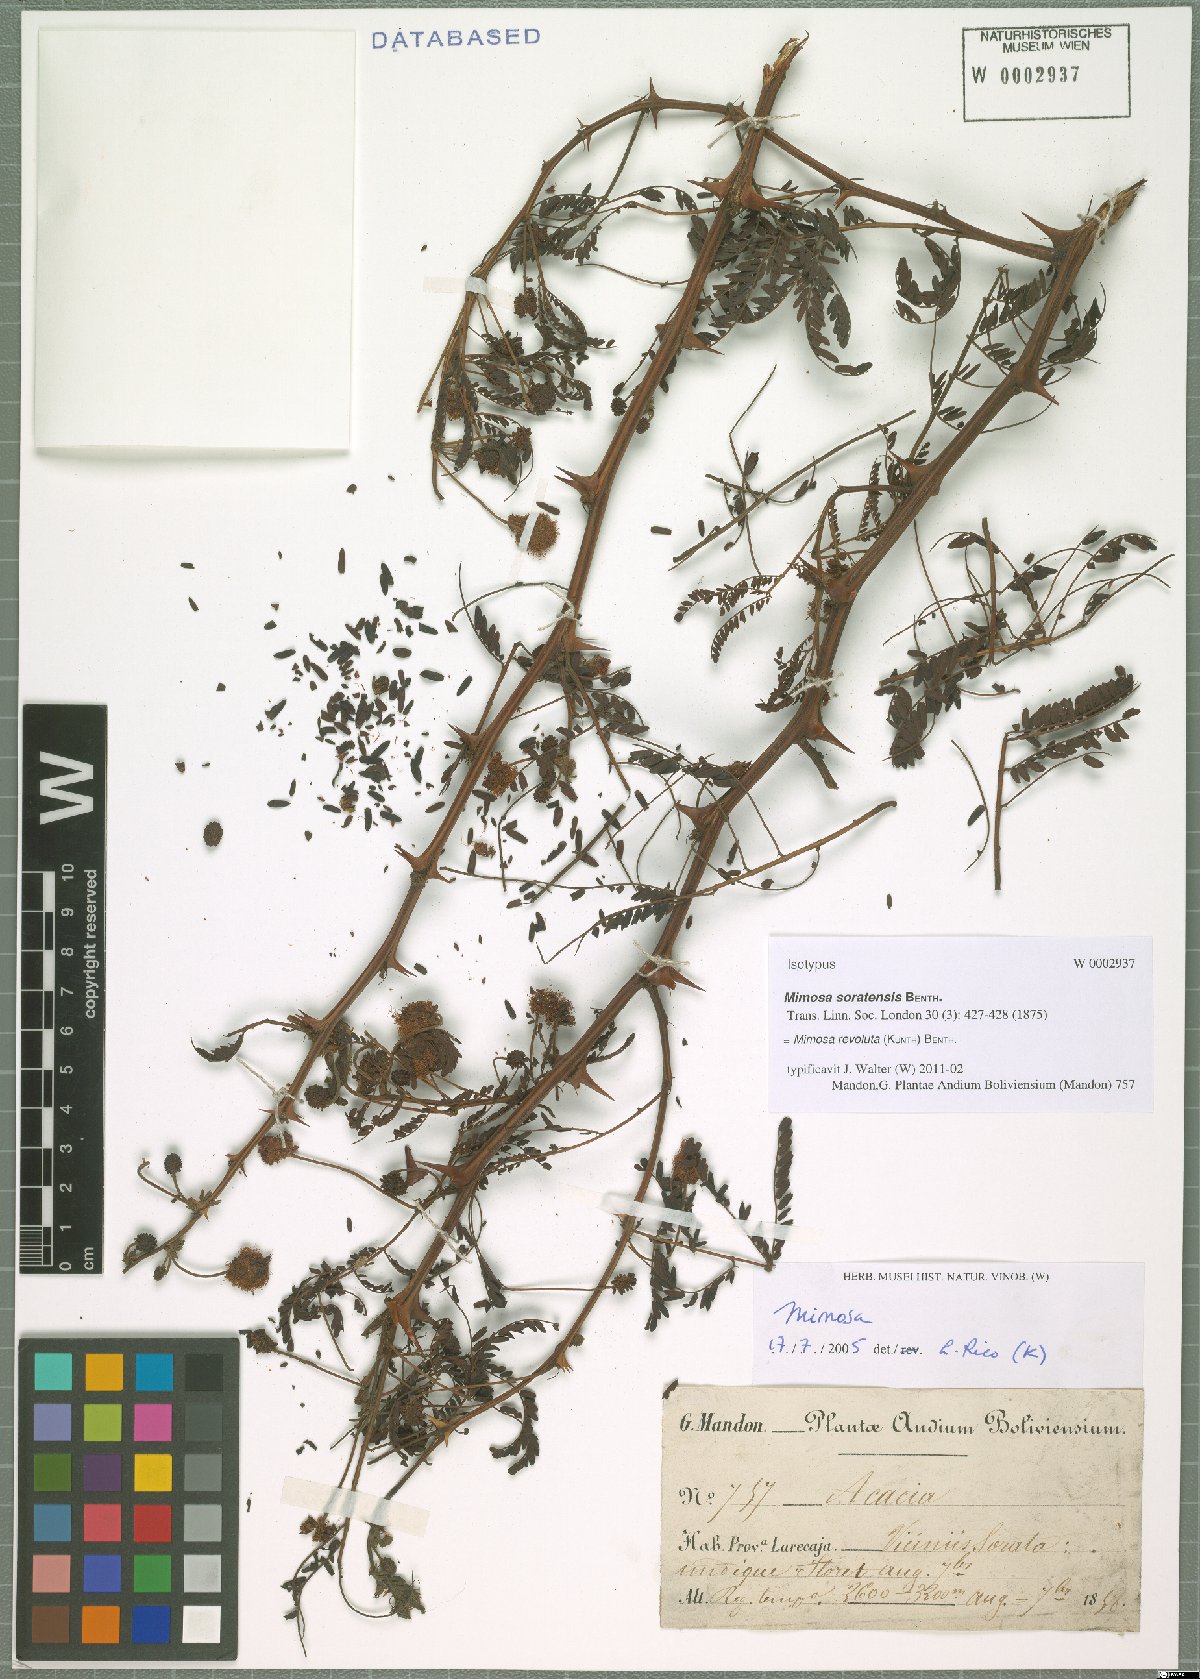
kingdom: Plantae
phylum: Tracheophyta
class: Magnoliopsida
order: Fabales
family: Fabaceae
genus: Mimosa
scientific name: Mimosa revoluta
